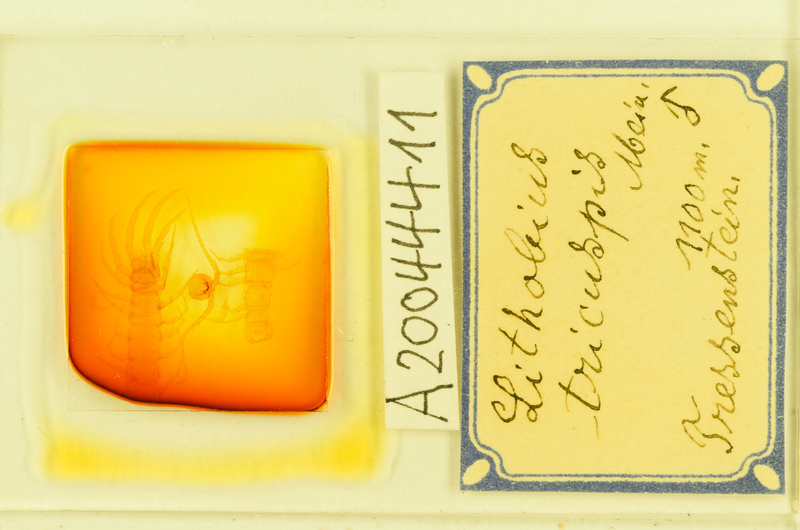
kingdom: Animalia
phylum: Arthropoda
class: Chilopoda
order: Lithobiomorpha
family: Lithobiidae
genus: Lithobius
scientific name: Lithobius tricuspis
